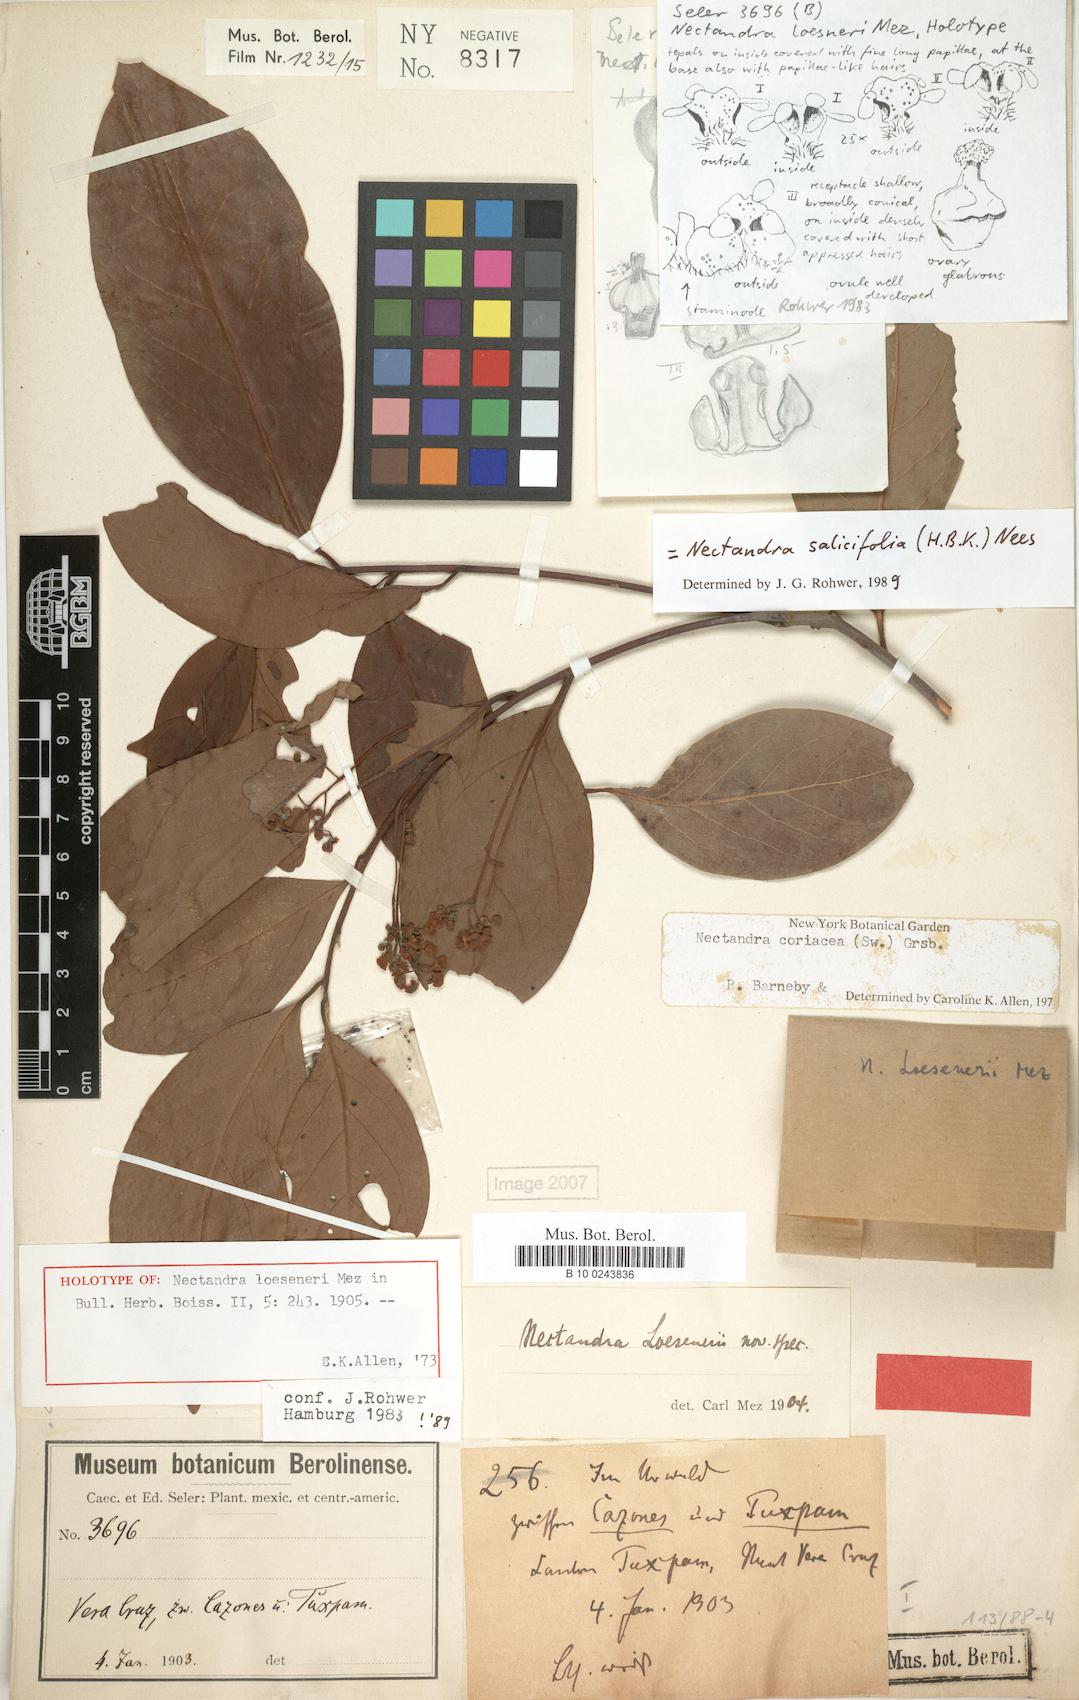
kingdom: Plantae
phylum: Tracheophyta
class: Magnoliopsida
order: Laurales
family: Lauraceae
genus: Damburneya
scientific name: Damburneya salicifolia
